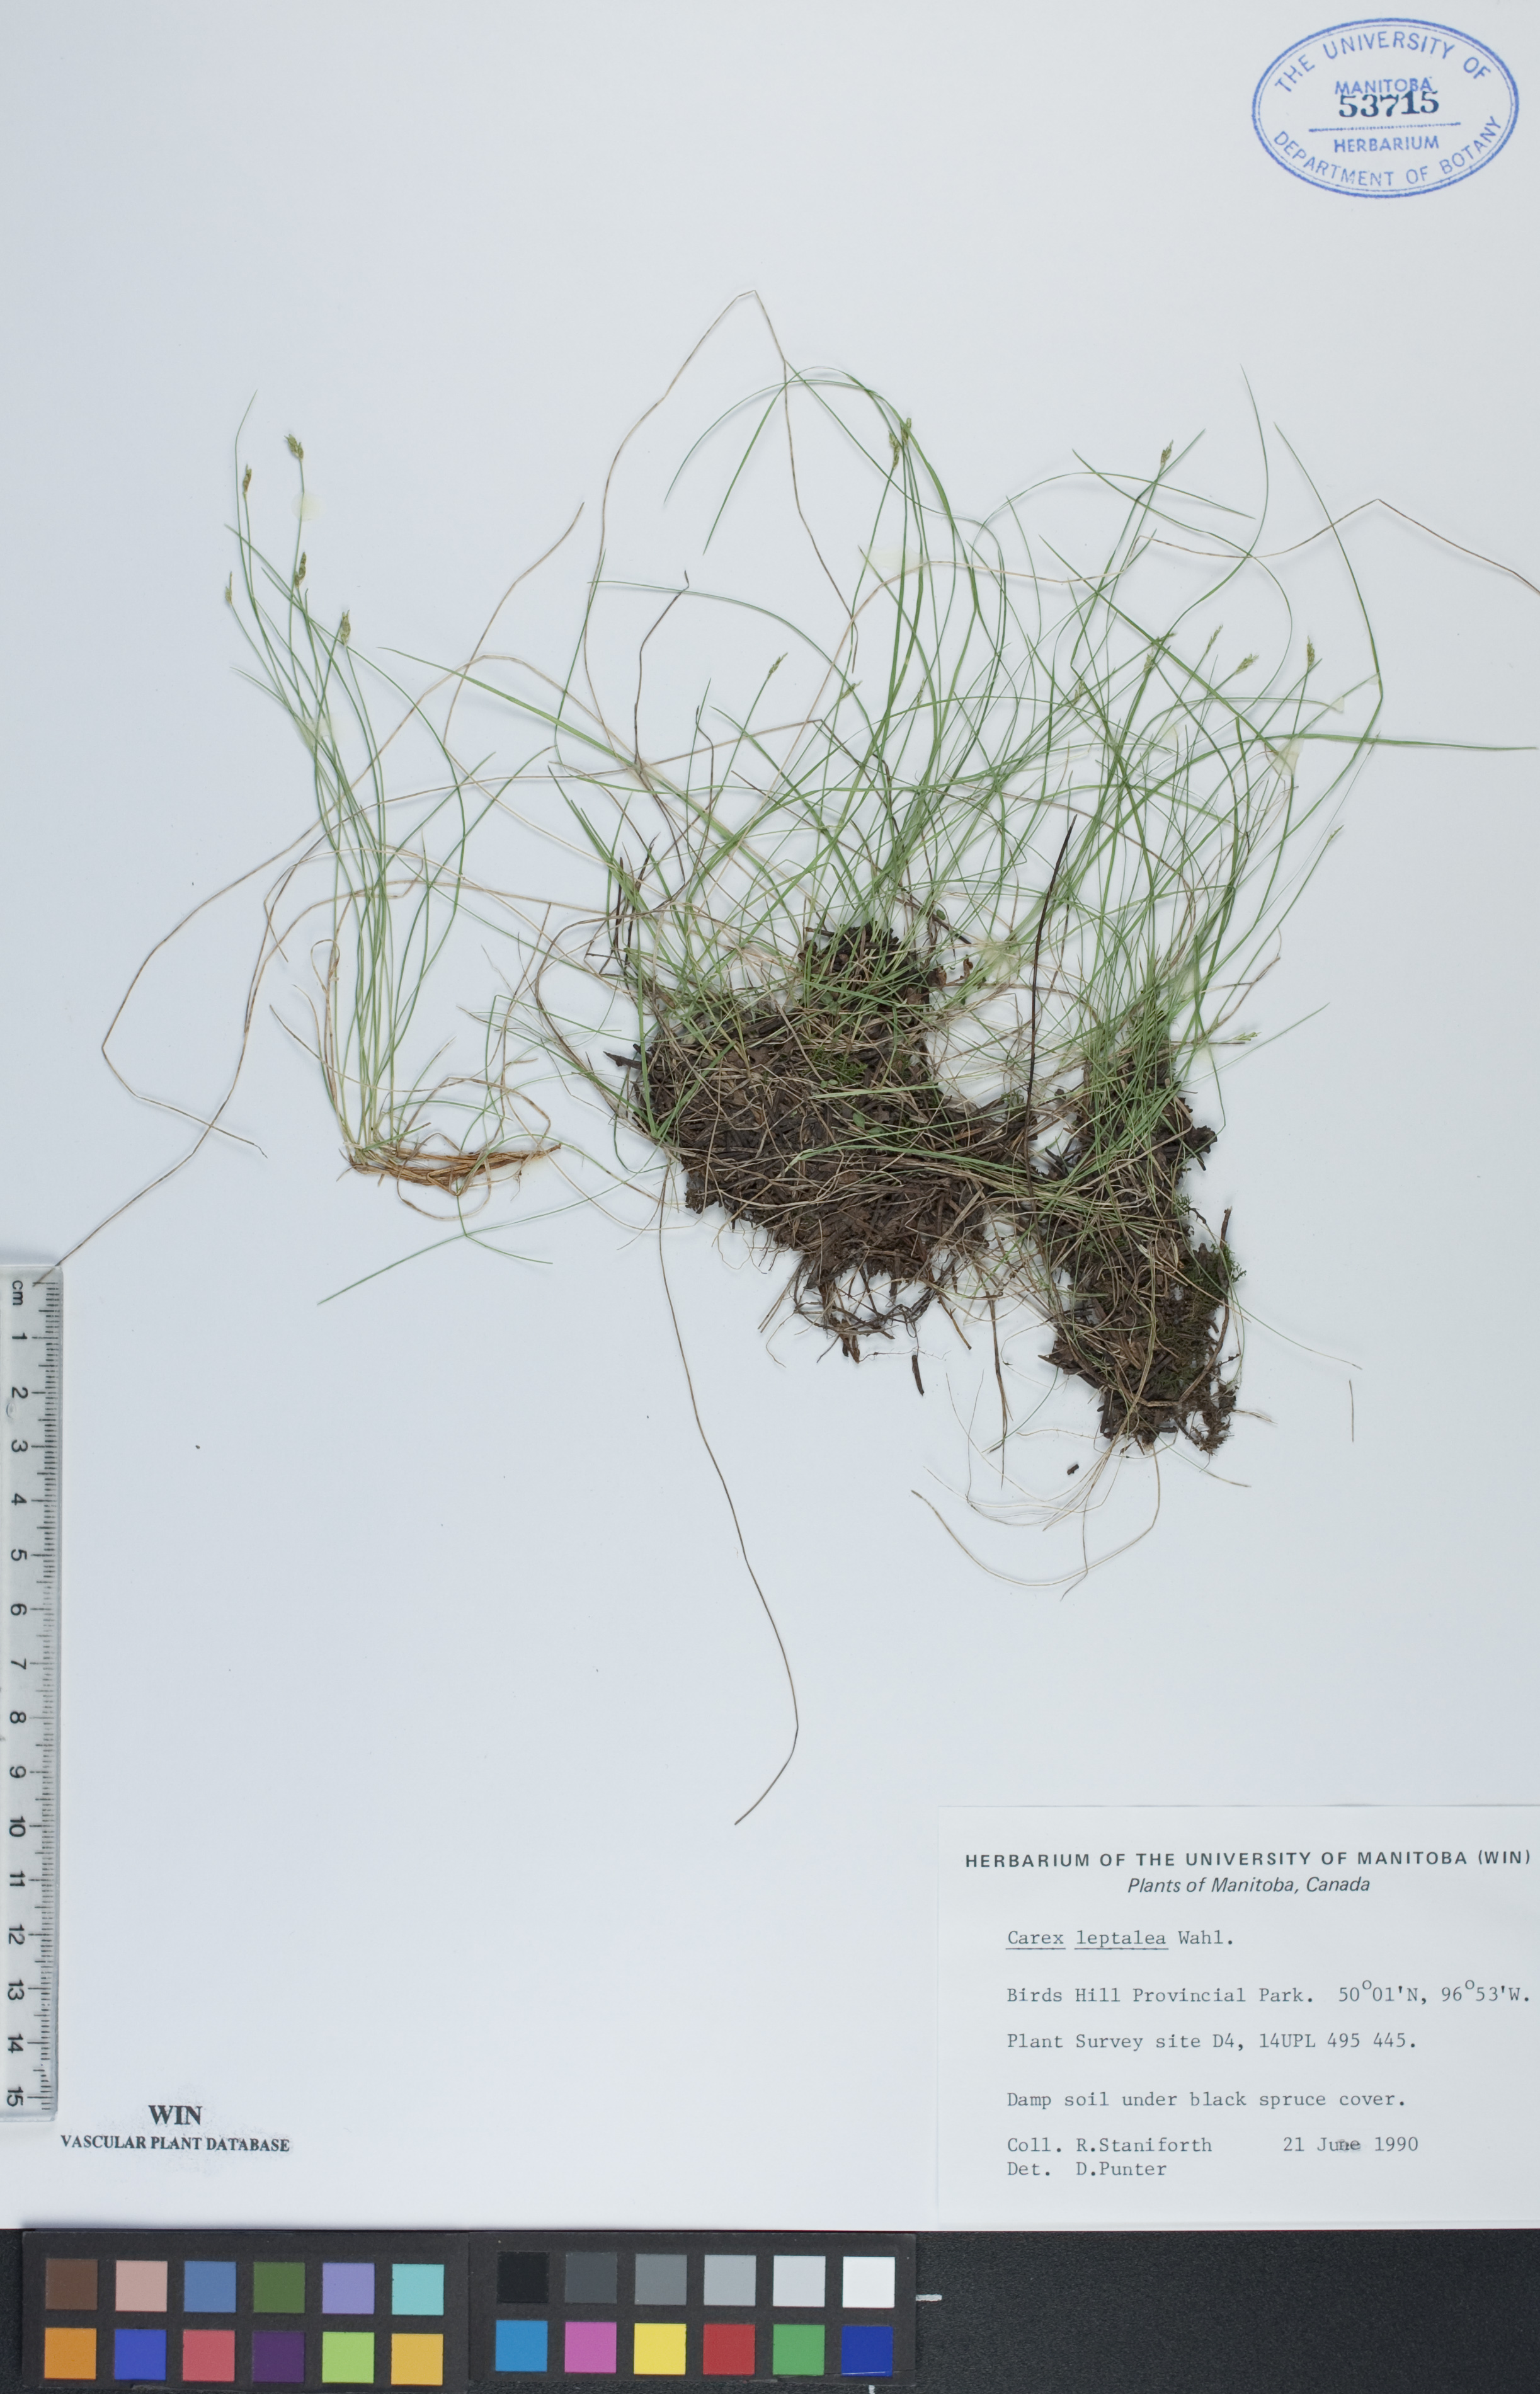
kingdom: Plantae
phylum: Tracheophyta
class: Liliopsida
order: Poales
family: Cyperaceae
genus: Carex
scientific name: Carex leptalea
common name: Bristly-stalked sedge
